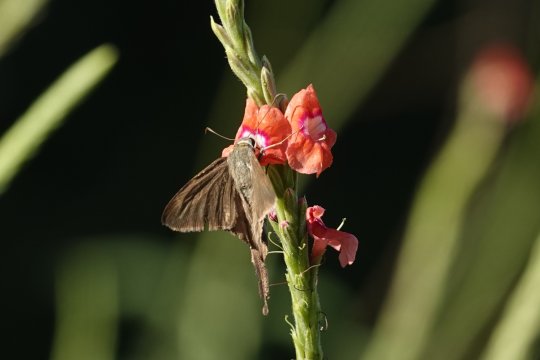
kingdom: Animalia
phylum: Arthropoda
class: Insecta
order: Lepidoptera
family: Hesperiidae
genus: Urbanus
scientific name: Urbanus procne
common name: Brown Longtail
